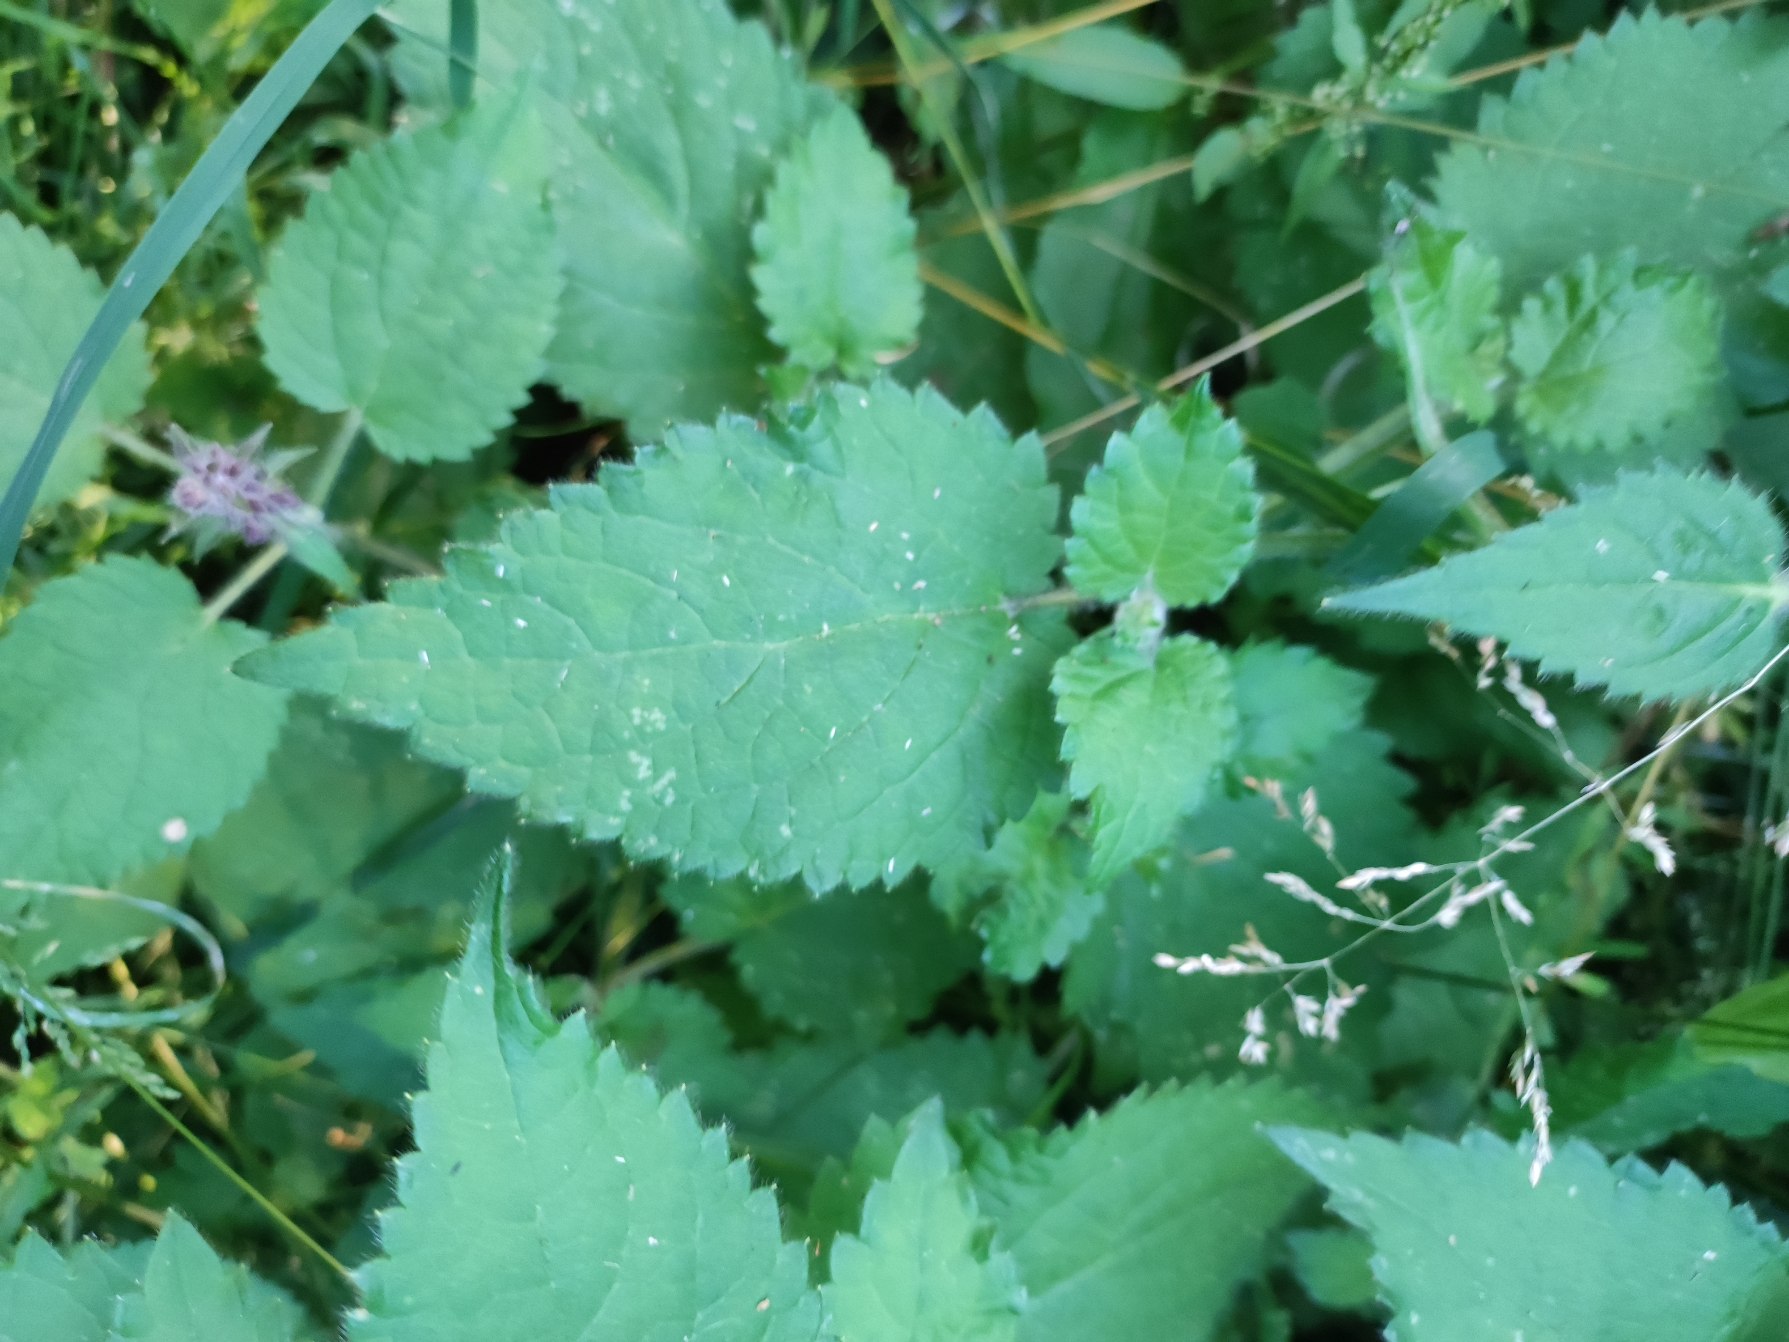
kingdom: Plantae
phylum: Tracheophyta
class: Magnoliopsida
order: Lamiales
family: Lamiaceae
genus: Stachys
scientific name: Stachys sylvatica
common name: Skov-galtetand
